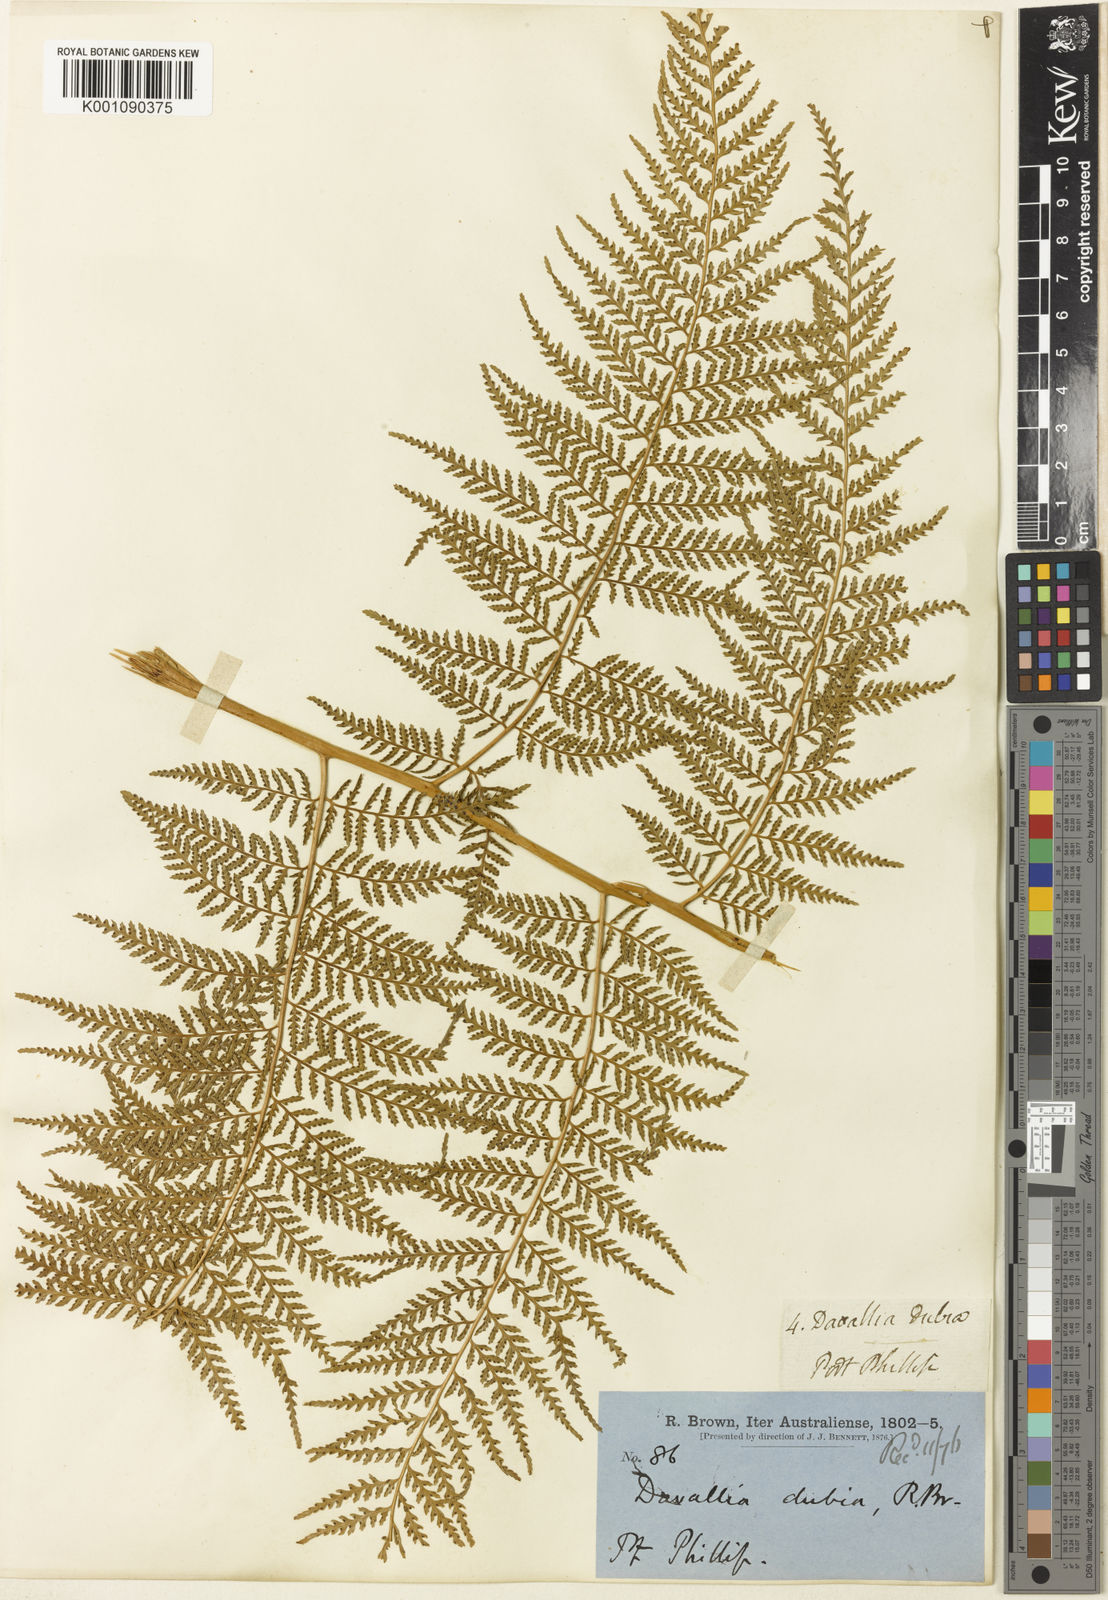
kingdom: Plantae
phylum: Tracheophyta
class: Polypodiopsida
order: Cyatheales
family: Dicksoniaceae
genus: Calochlaena
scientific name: Calochlaena dubia
